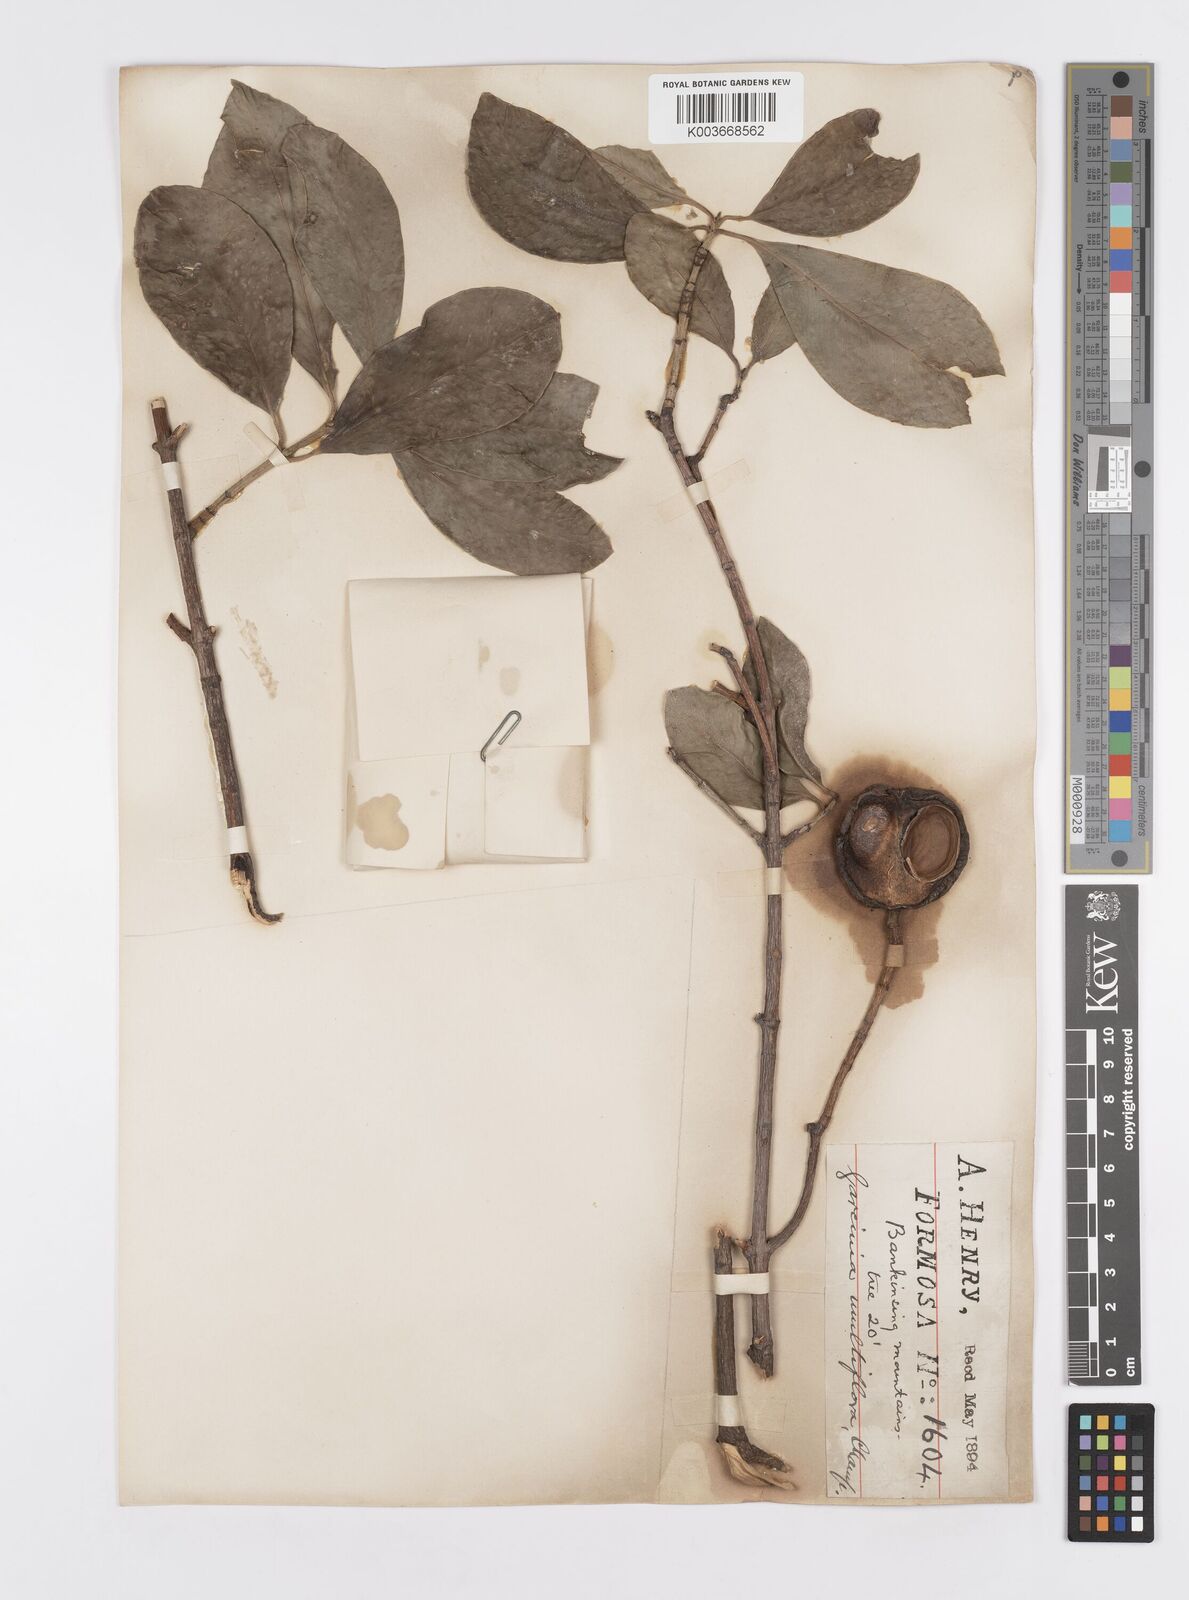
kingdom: Plantae
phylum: Tracheophyta
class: Magnoliopsida
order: Malpighiales
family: Clusiaceae
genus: Garcinia
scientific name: Garcinia multiflora
